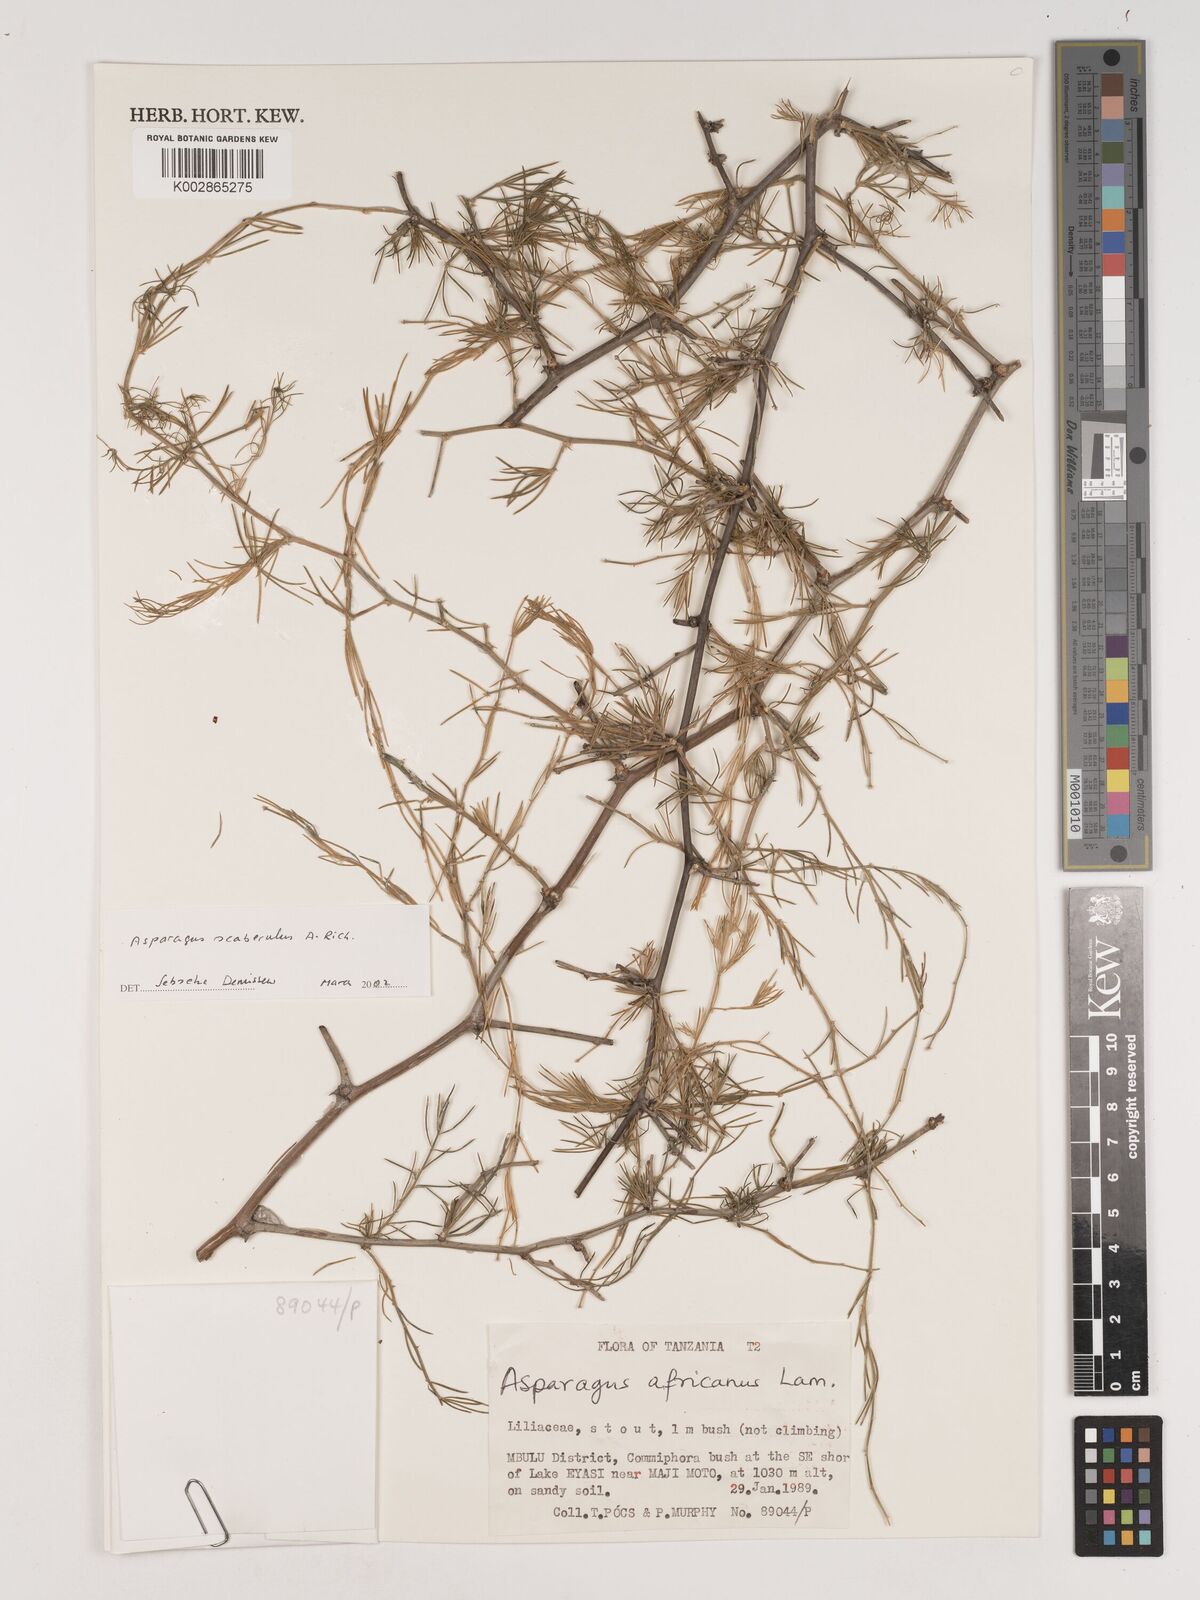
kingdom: Plantae
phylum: Tracheophyta
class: Liliopsida
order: Asparagales
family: Asparagaceae
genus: Asparagus
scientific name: Asparagus scaberulus
